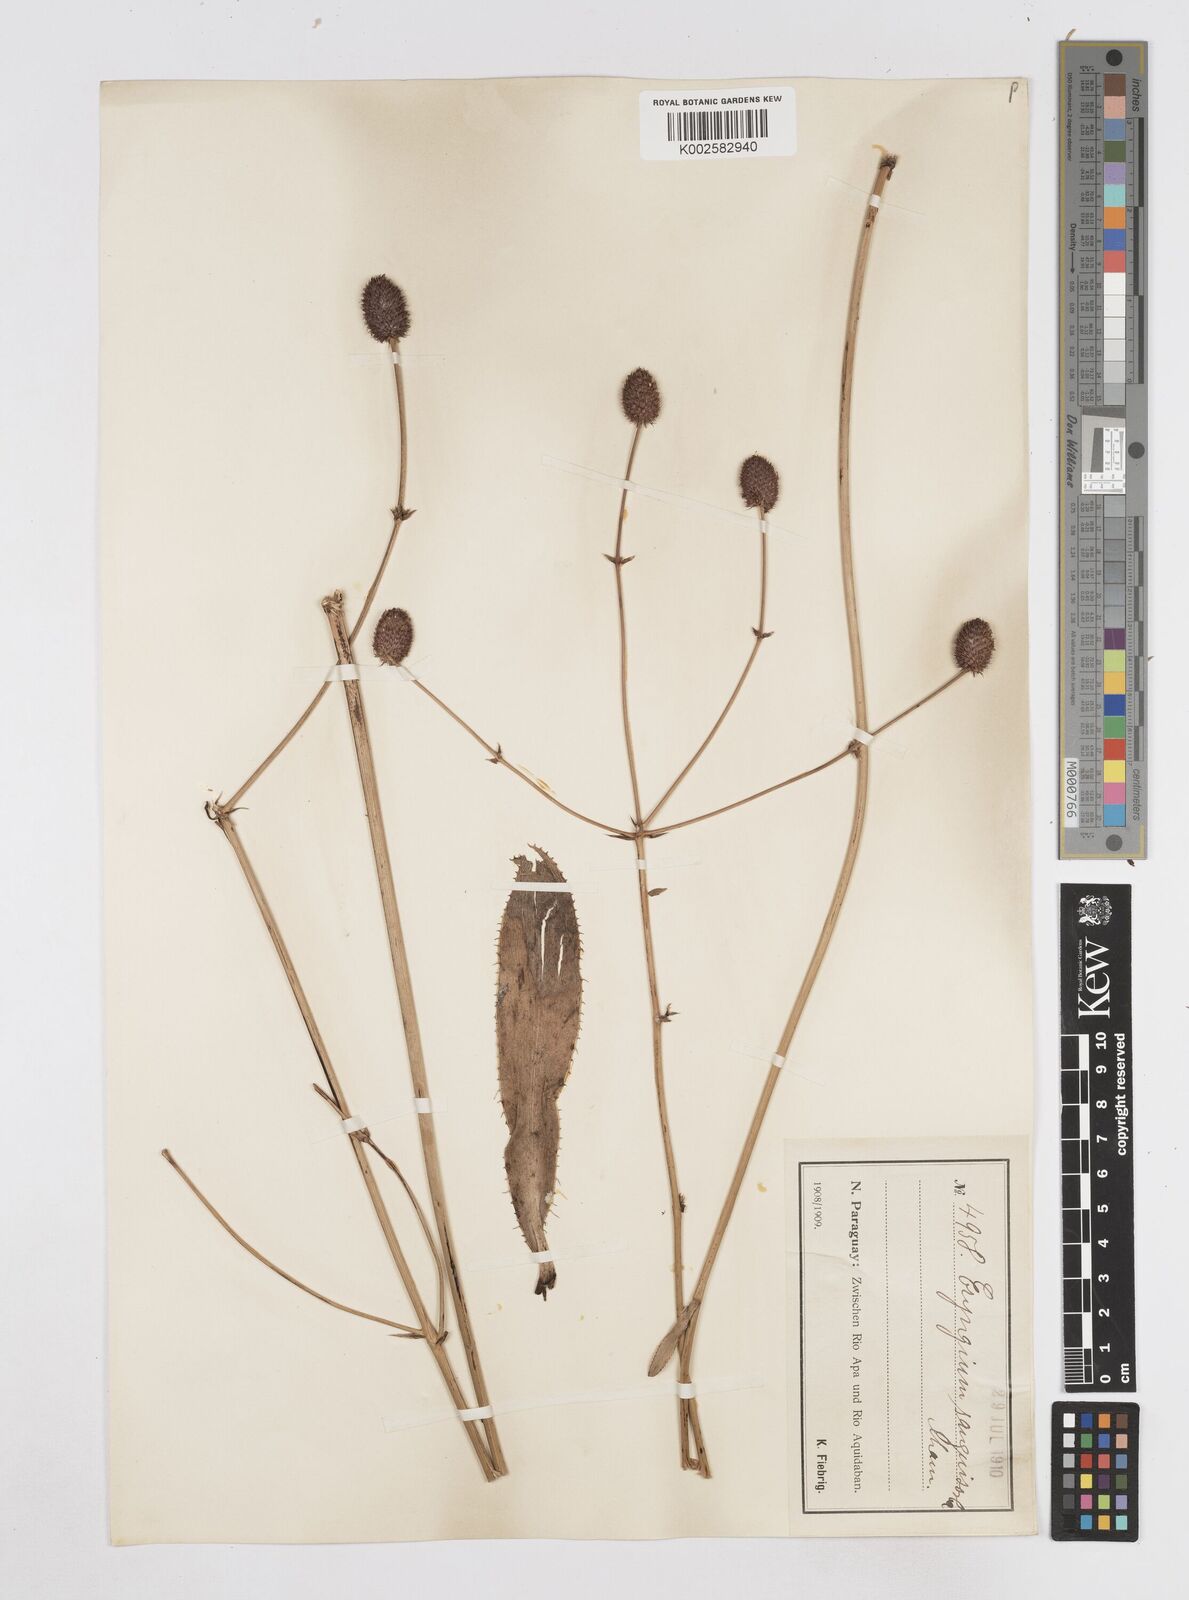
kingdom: Plantae
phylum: Tracheophyta
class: Magnoliopsida
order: Apiales
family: Apiaceae
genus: Eryngium
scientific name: Eryngium sanguisorba
